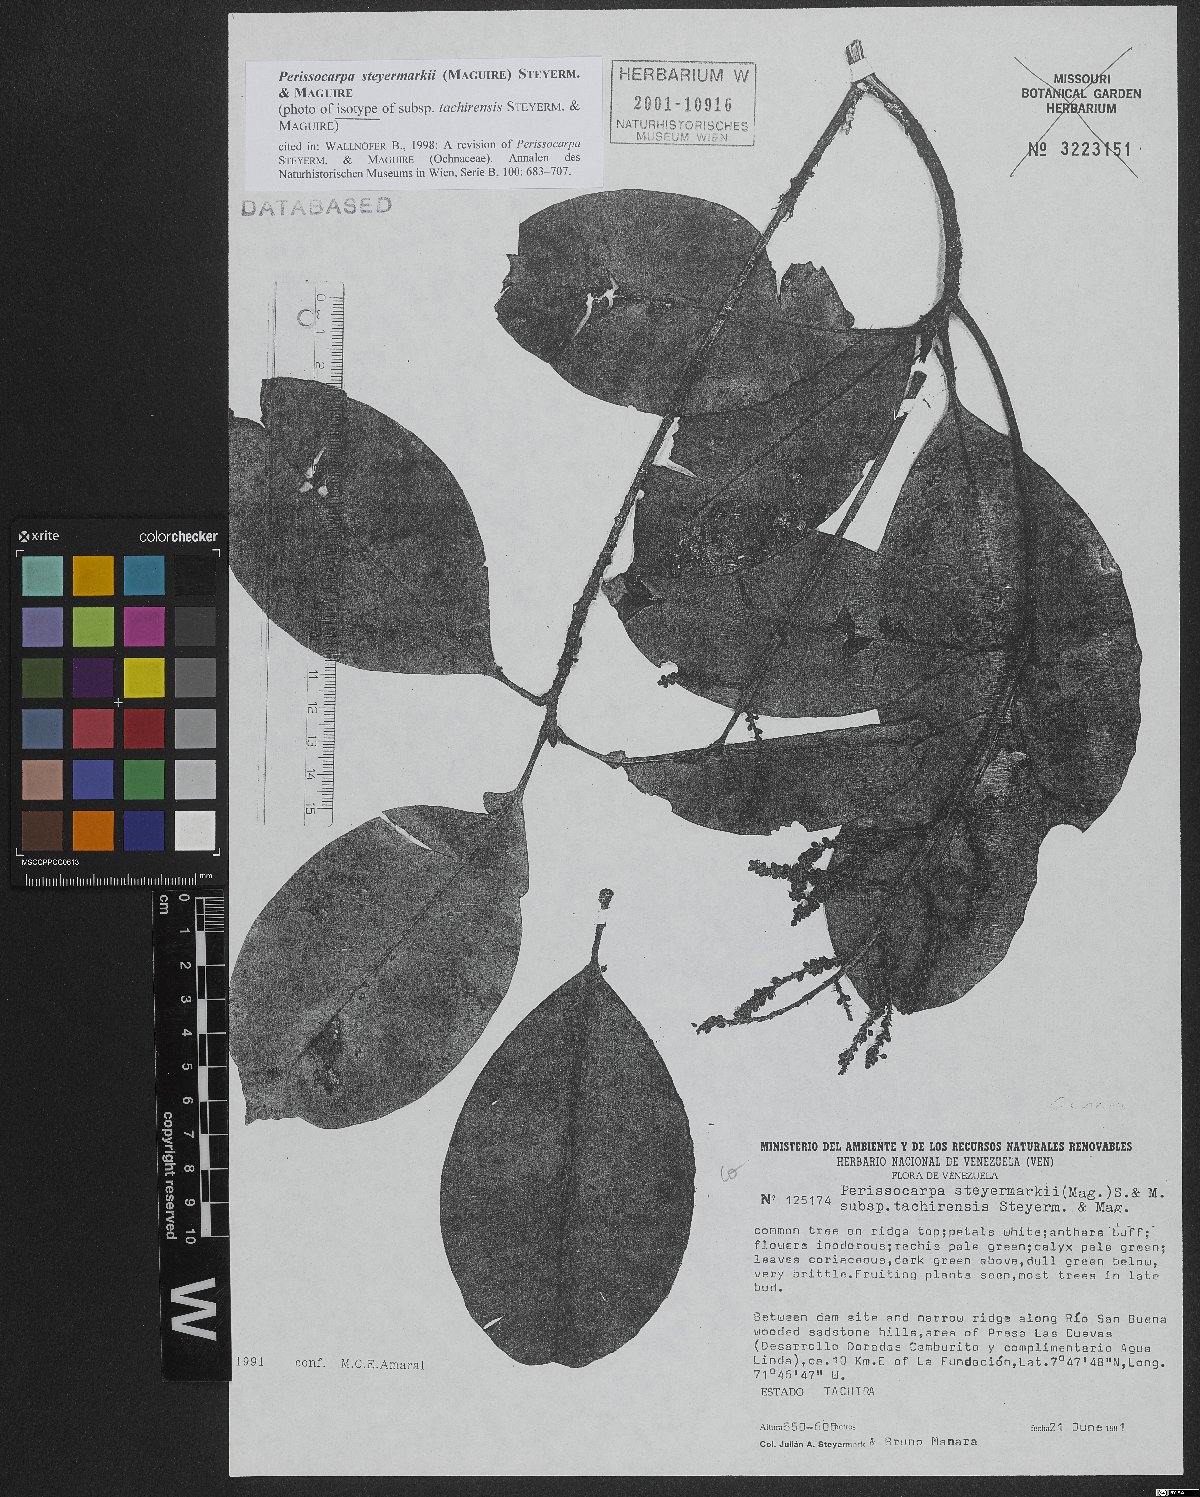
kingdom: Plantae
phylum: Tracheophyta
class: Magnoliopsida
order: Malpighiales
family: Ochnaceae
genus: Perissocarpa
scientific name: Perissocarpa steyermarkii
